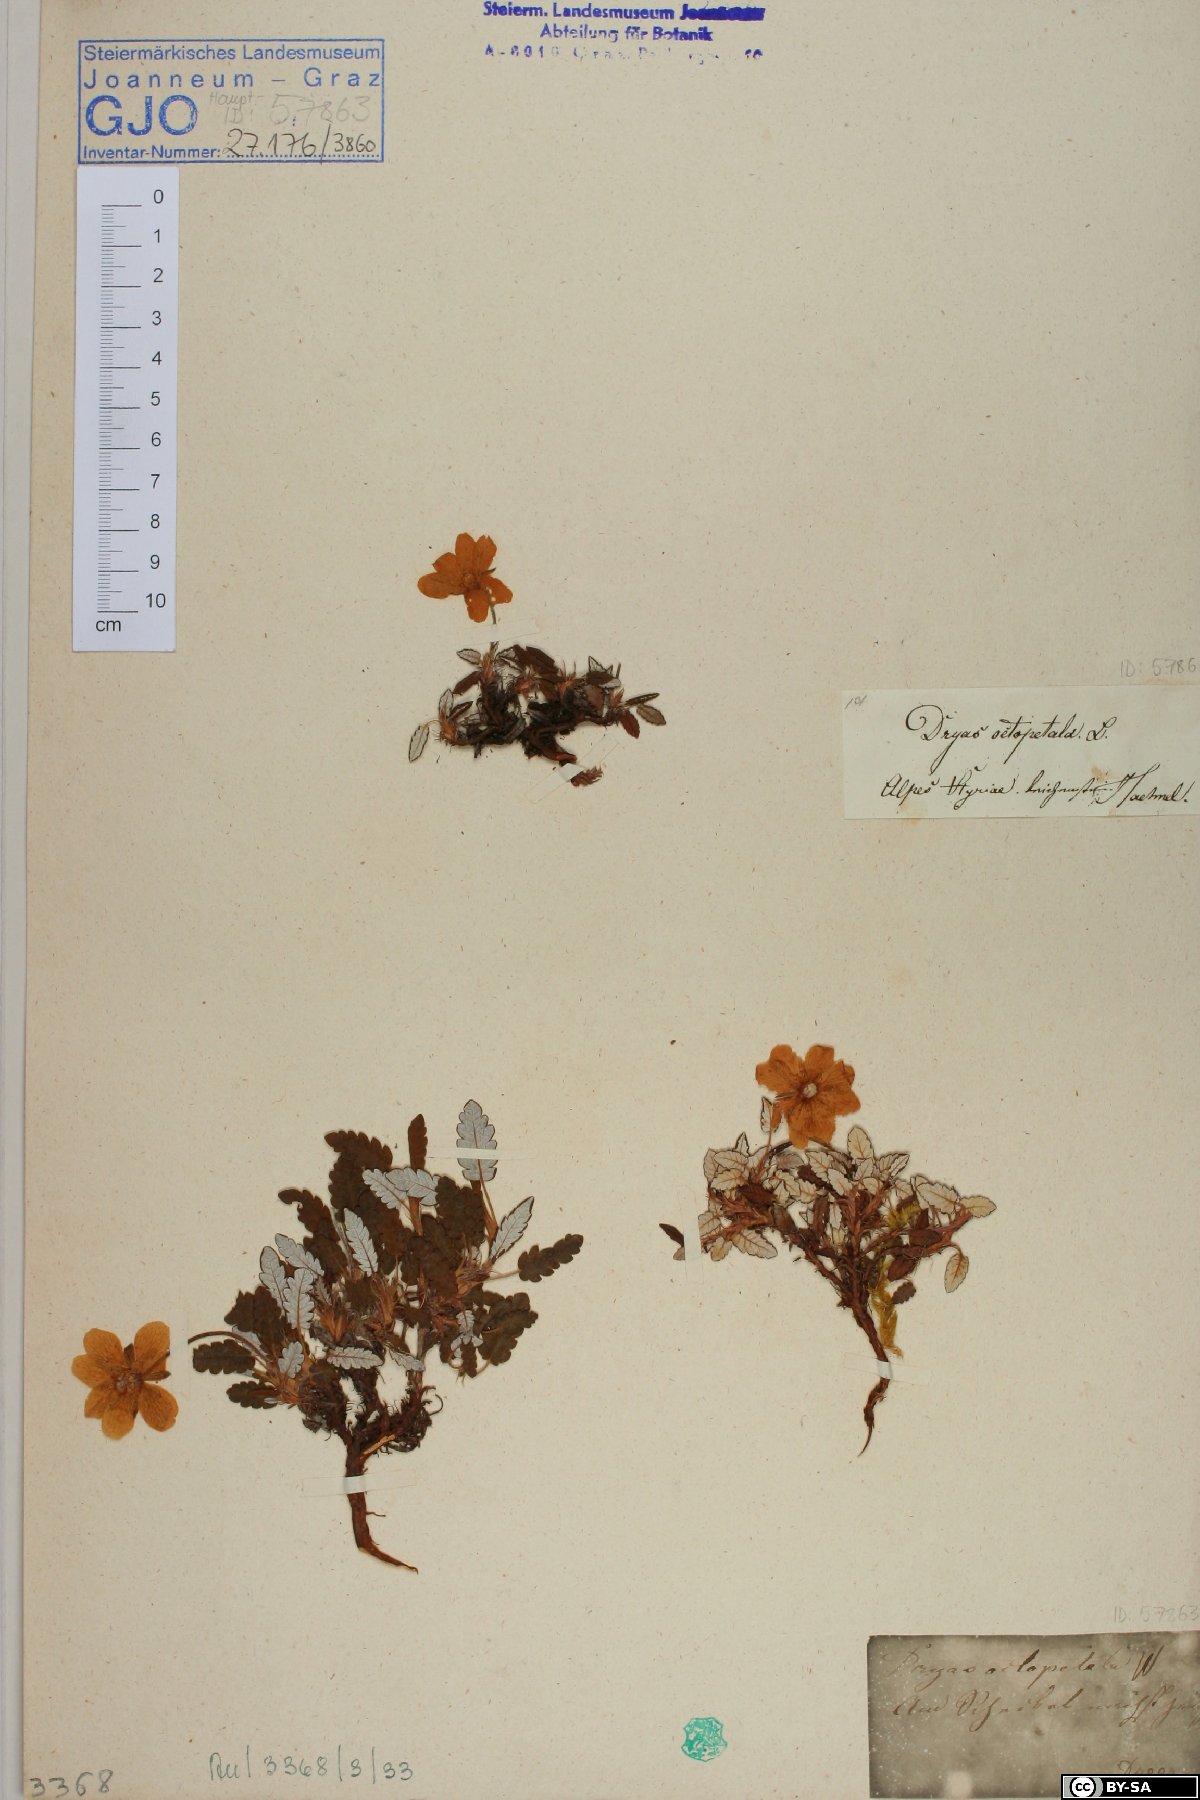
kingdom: Plantae
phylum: Tracheophyta
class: Magnoliopsida
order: Rosales
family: Rosaceae
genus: Dryas
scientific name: Dryas octopetala
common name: Eight-petal mountain-avens
